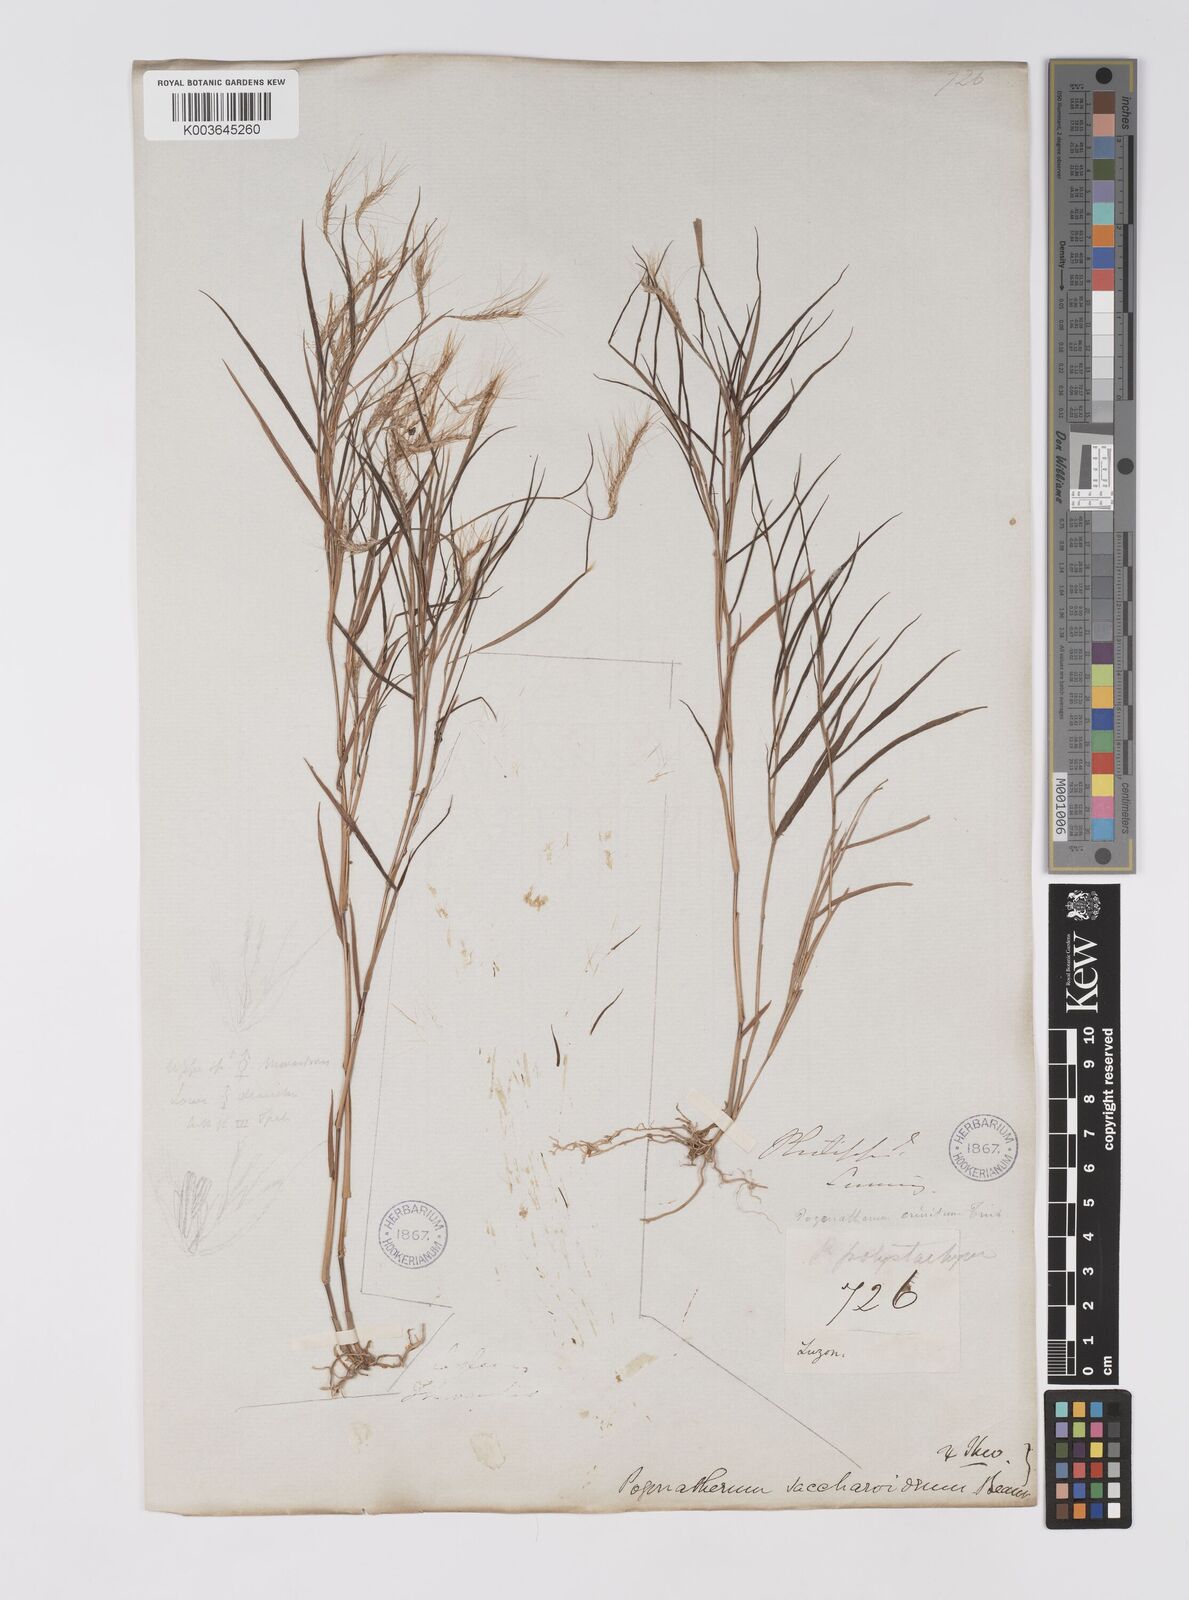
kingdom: Plantae
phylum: Tracheophyta
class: Liliopsida
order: Poales
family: Poaceae
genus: Pogonatherum
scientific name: Pogonatherum paniceum
